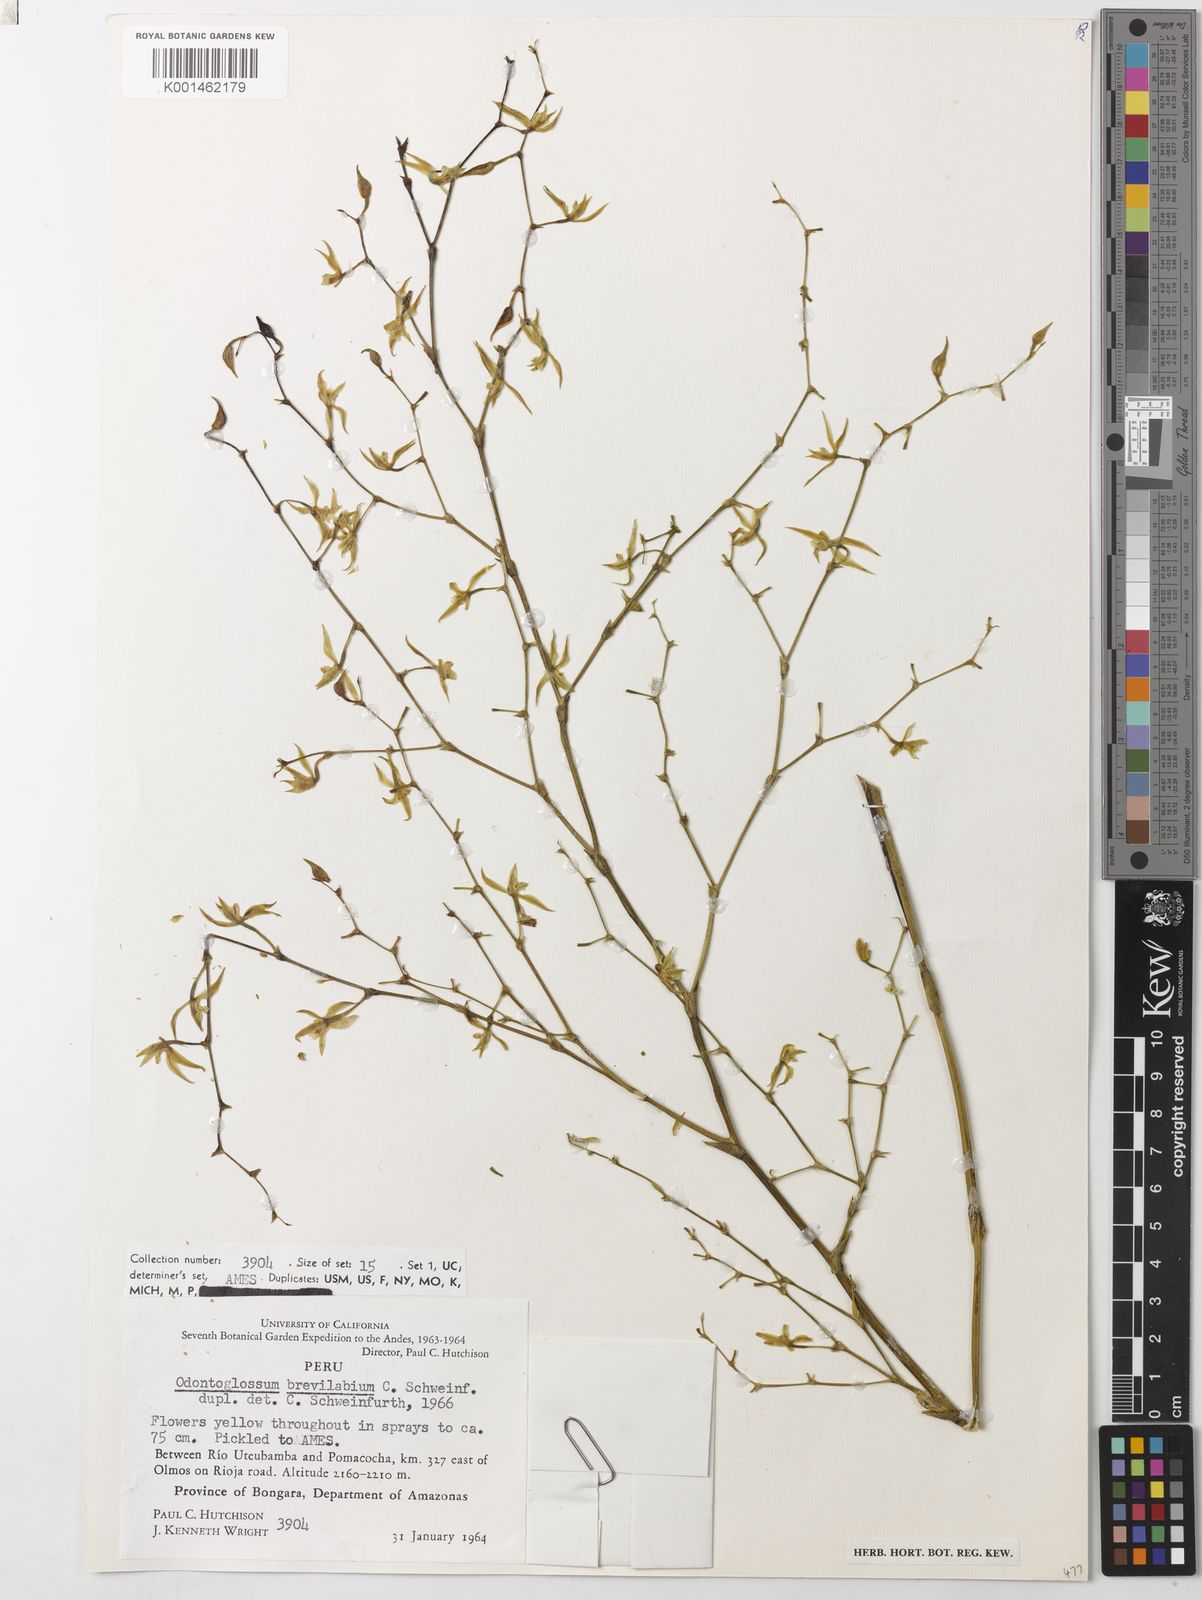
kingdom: Plantae
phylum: Tracheophyta
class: Liliopsida
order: Asparagales
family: Orchidaceae
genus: Oliveriana
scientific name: Oliveriana brevilabia
